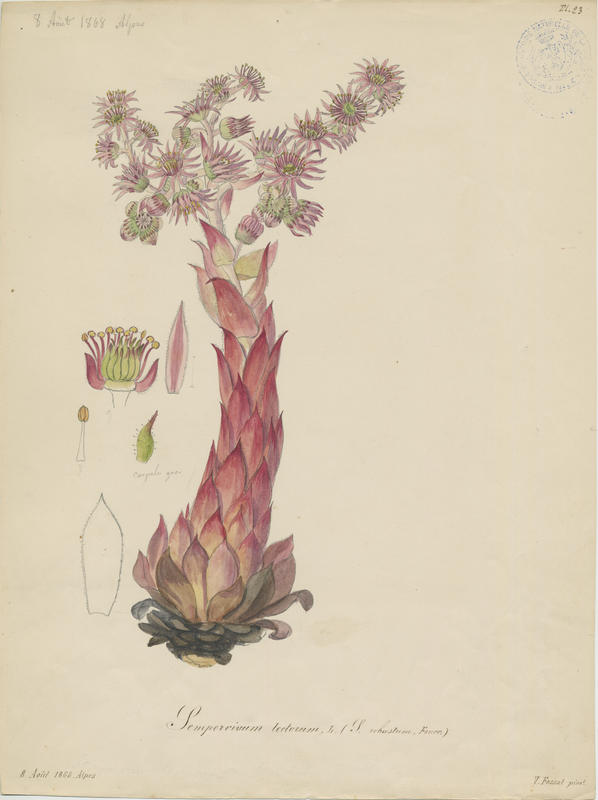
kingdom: Plantae
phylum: Tracheophyta
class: Magnoliopsida
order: Saxifragales
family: Crassulaceae
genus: Sempervivum
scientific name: Sempervivum tectorum
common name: House-leek
